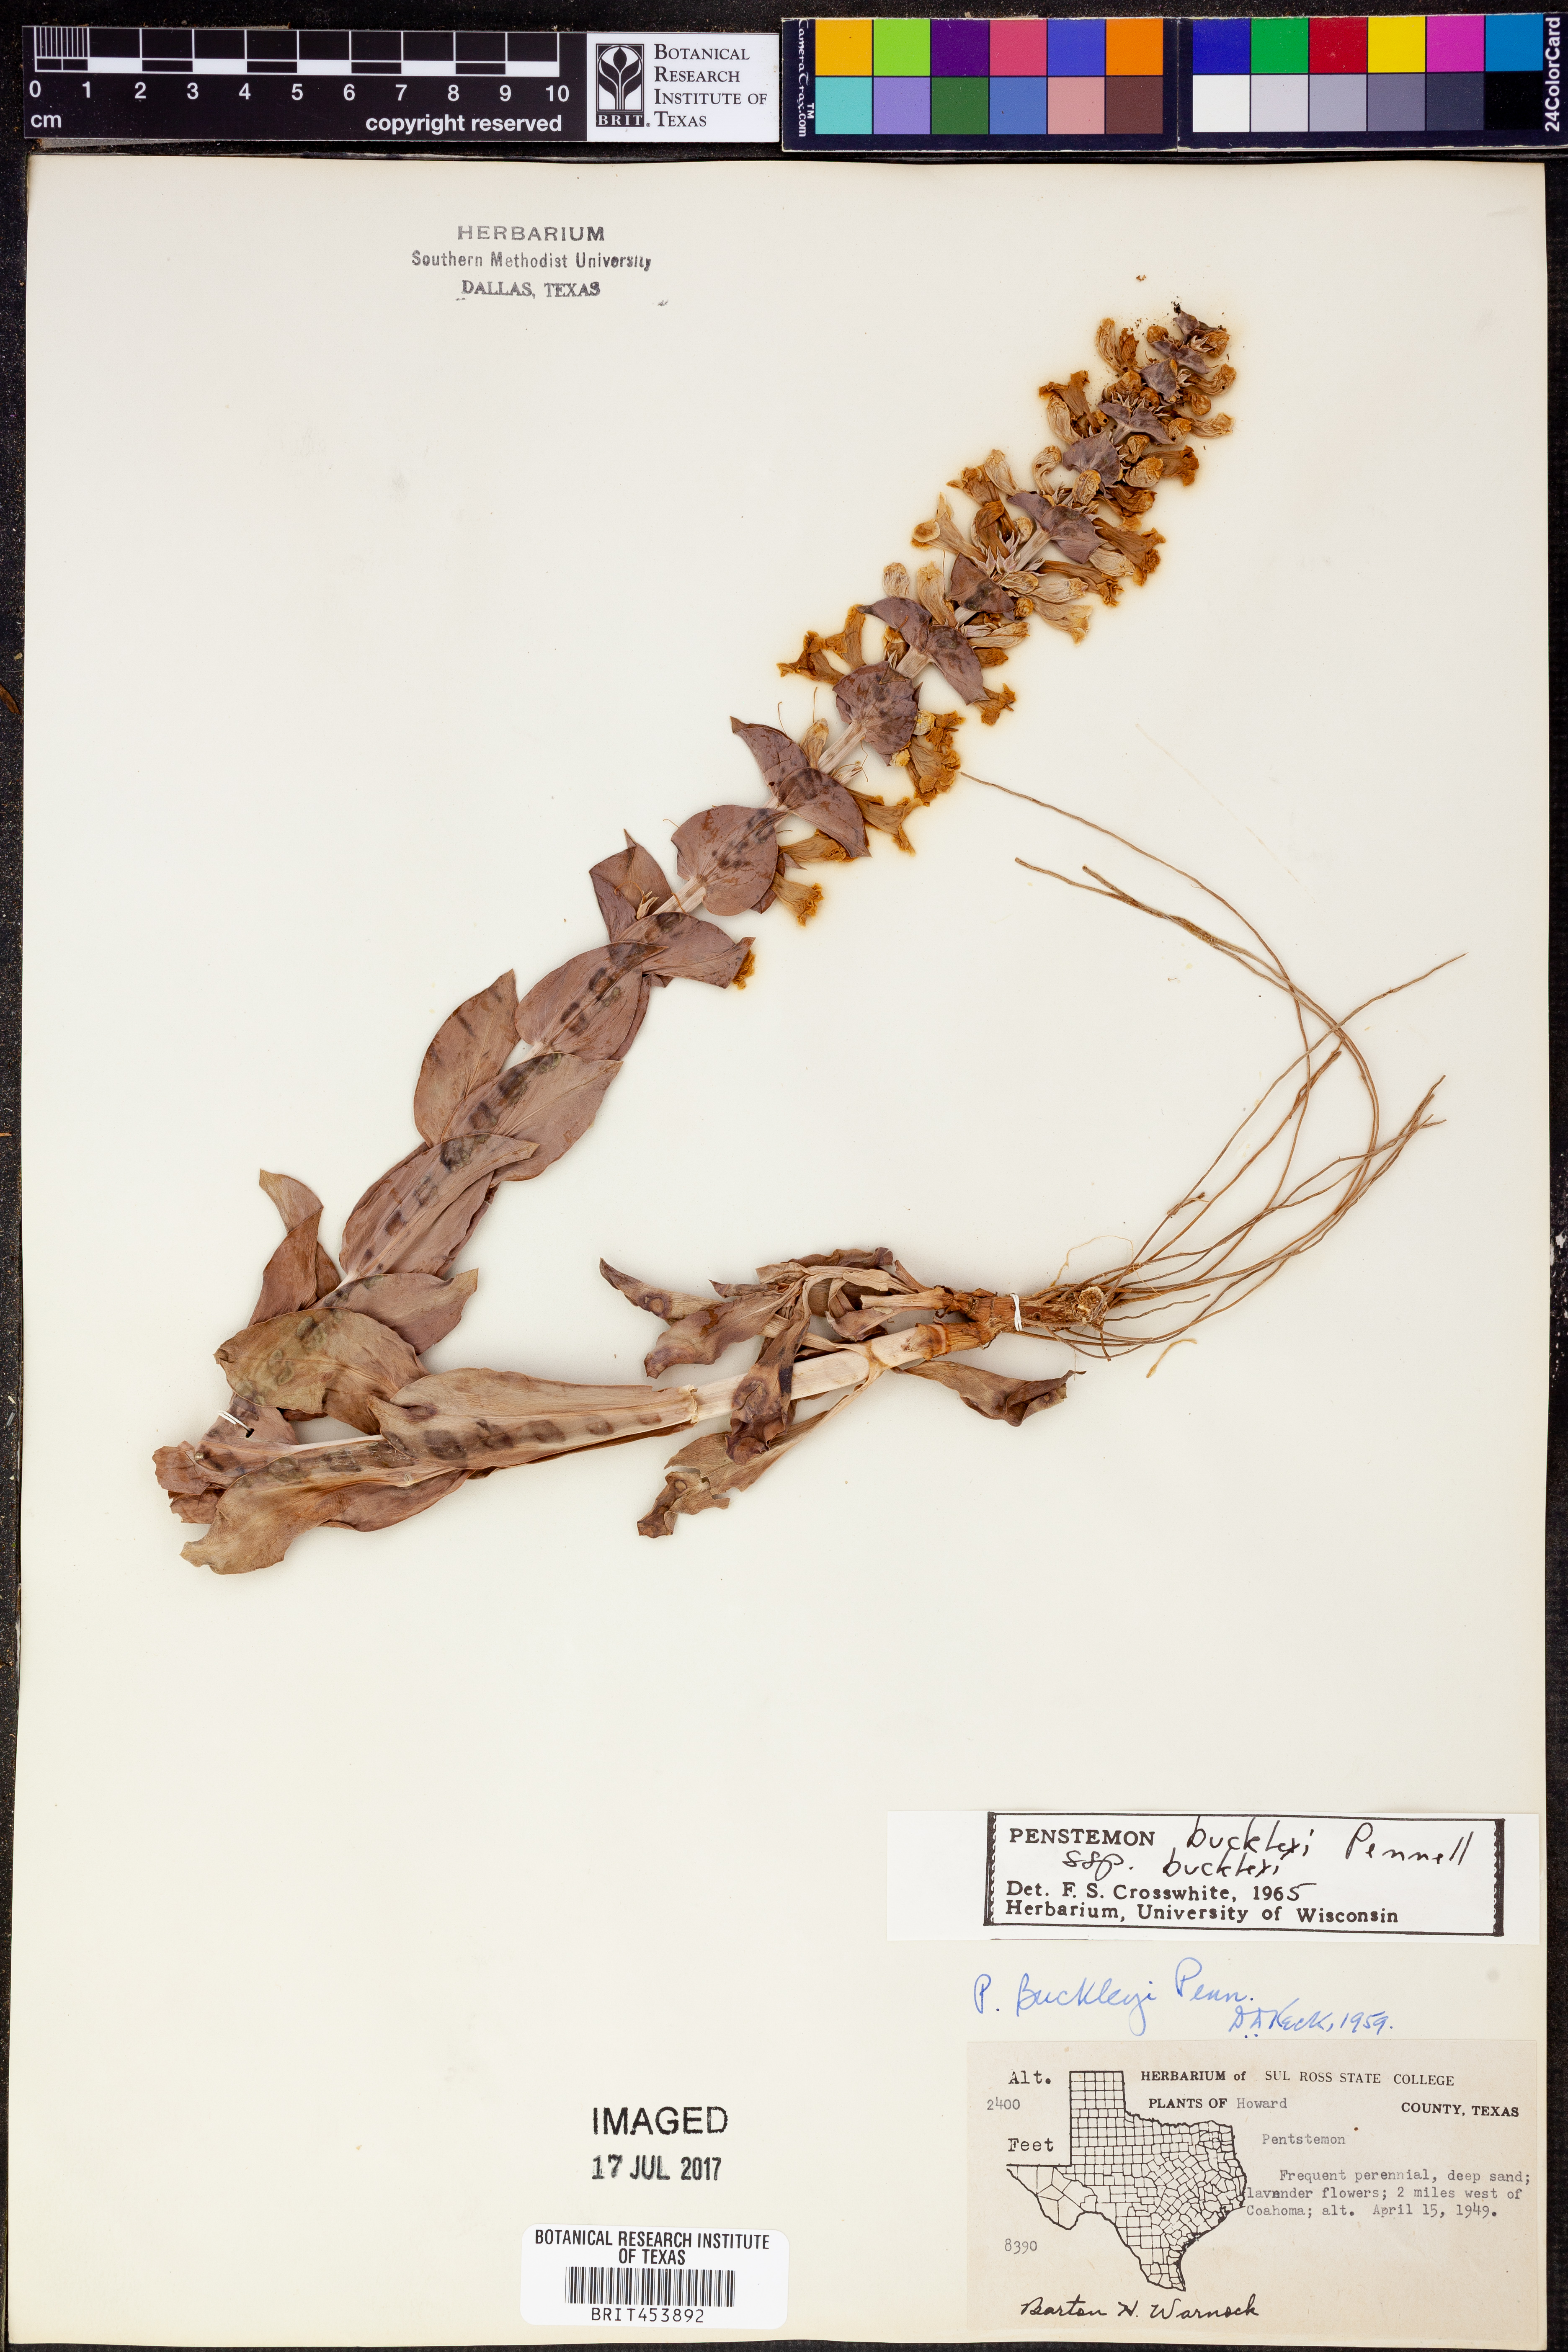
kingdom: Plantae
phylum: Tracheophyta
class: Magnoliopsida
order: Lamiales
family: Plantaginaceae
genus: Penstemon
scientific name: Penstemon buckleyi
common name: Buckley's penstemon
